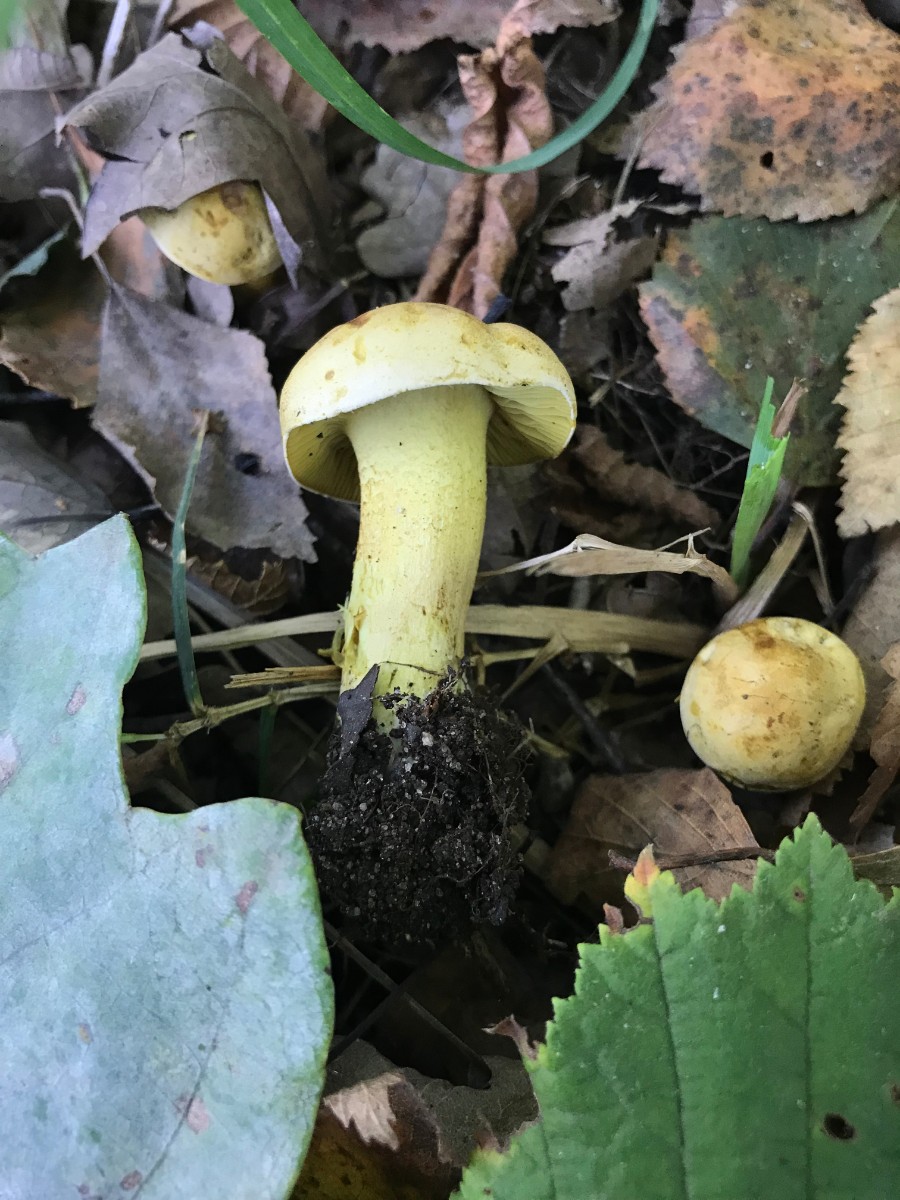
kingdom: Fungi
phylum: Basidiomycota
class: Agaricomycetes
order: Agaricales
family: Tricholomataceae
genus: Tricholoma
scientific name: Tricholoma sulphureum
